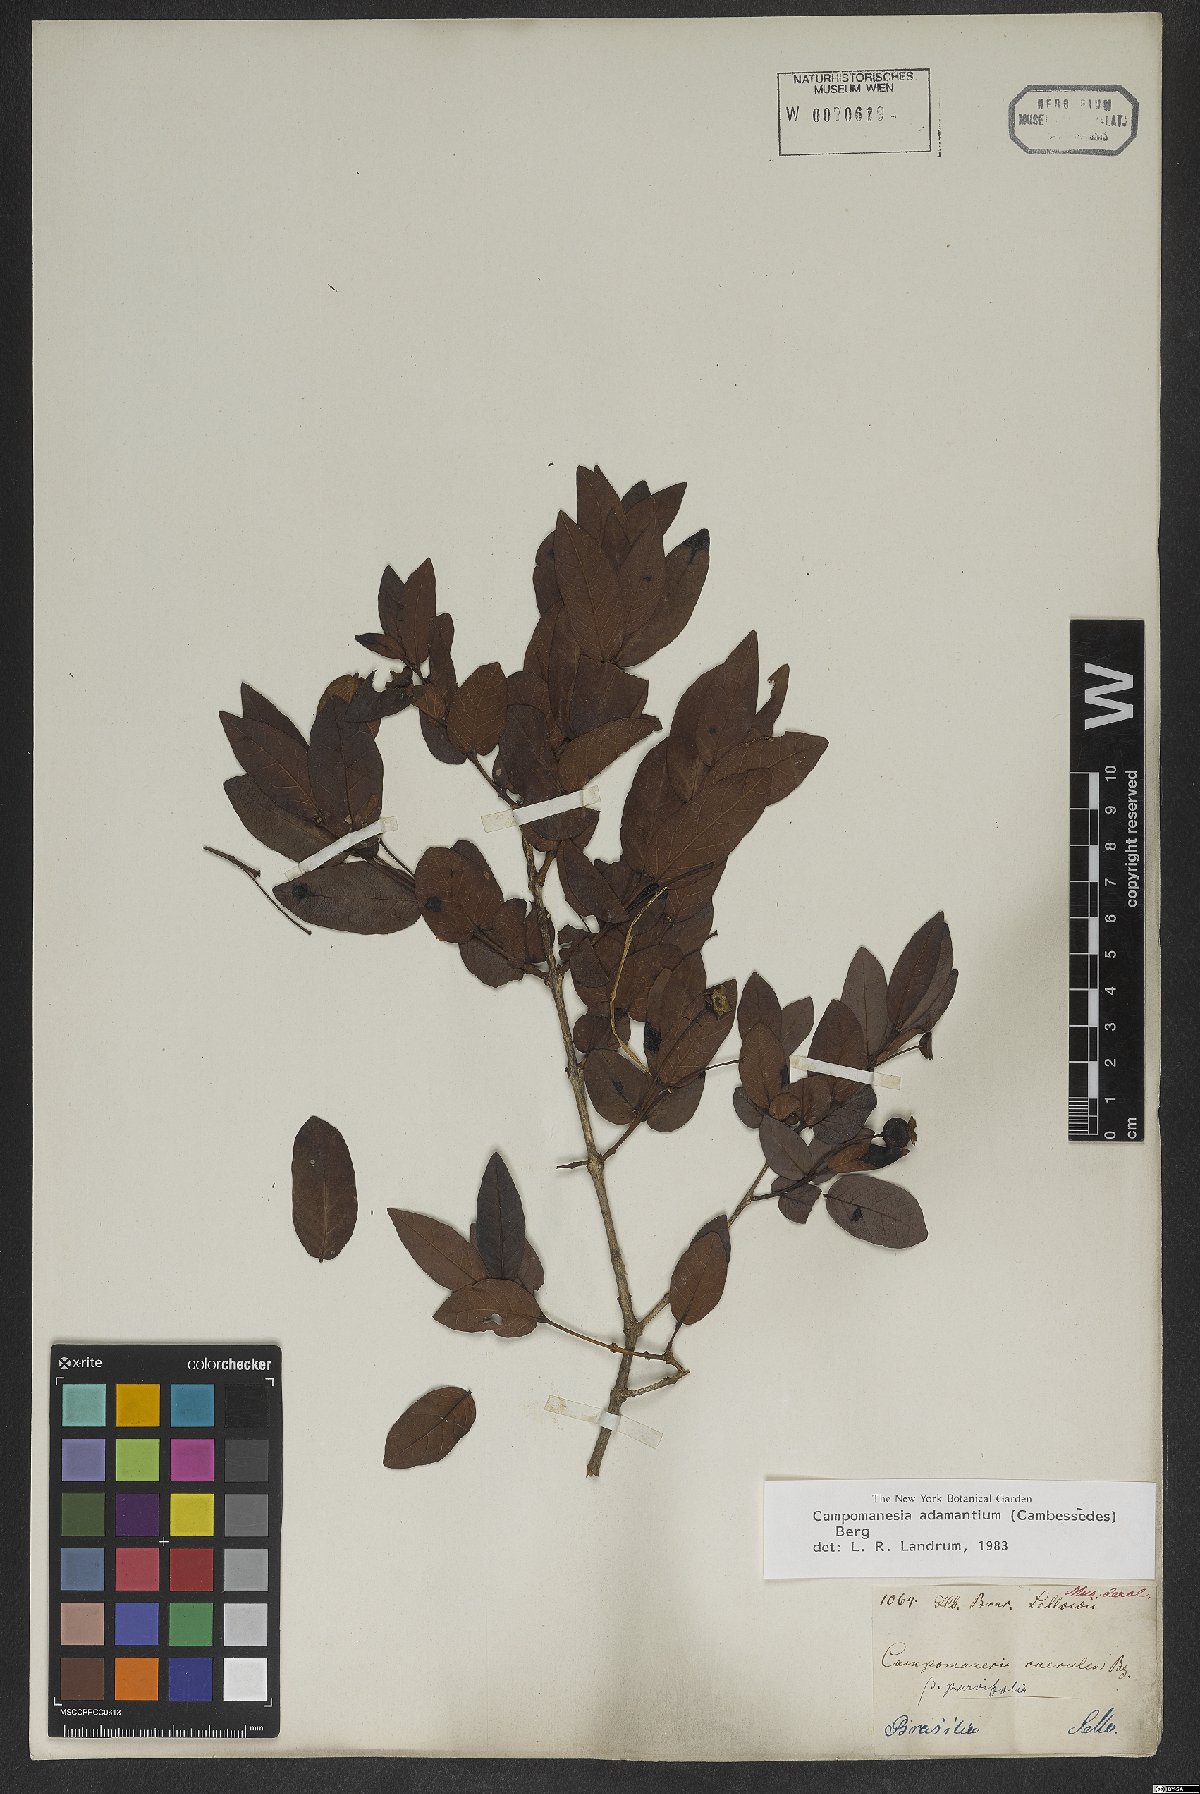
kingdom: Plantae
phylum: Tracheophyta
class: Magnoliopsida
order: Myrtales
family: Myrtaceae
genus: Campomanesia
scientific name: Campomanesia adamantium
